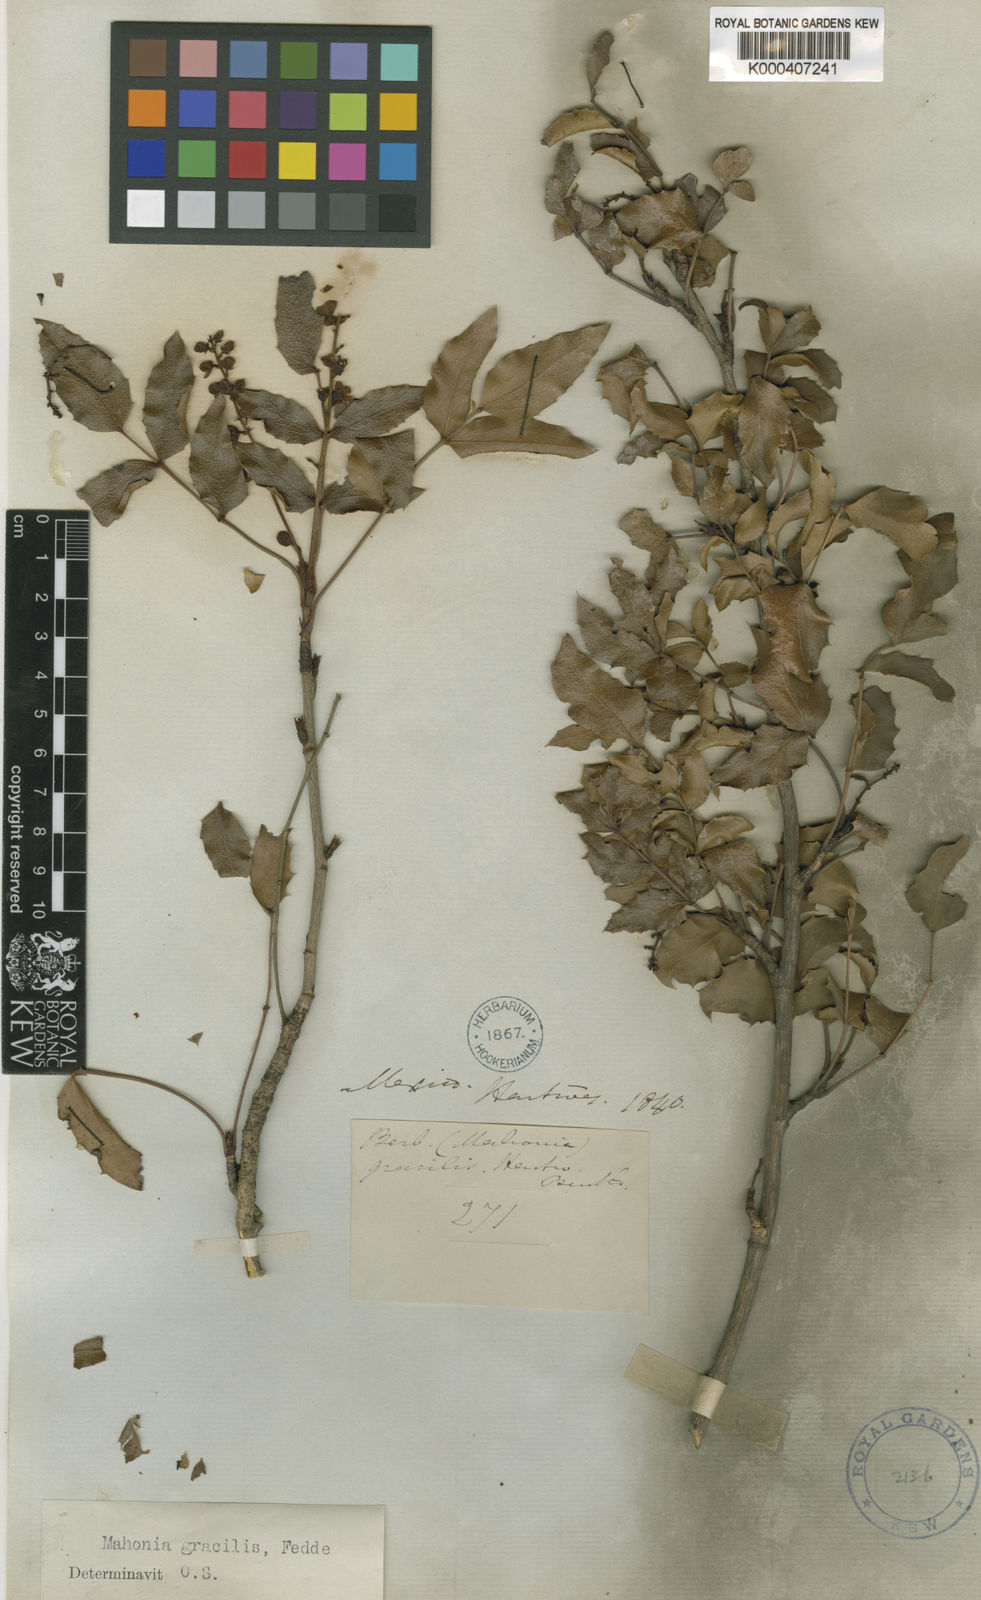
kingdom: Plantae
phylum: Tracheophyta
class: Magnoliopsida
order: Ranunculales
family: Berberidaceae
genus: Mahonia
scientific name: Mahonia gracilis
